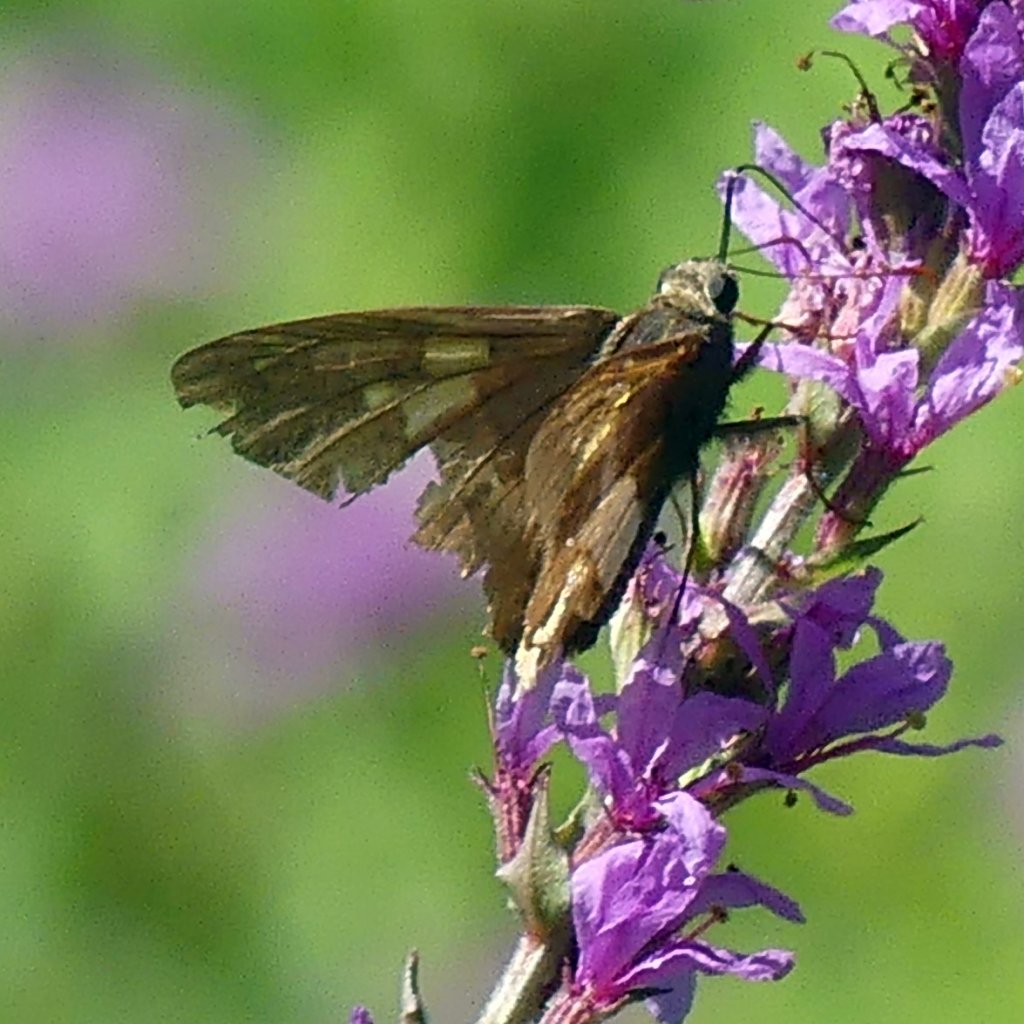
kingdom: Animalia
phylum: Arthropoda
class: Insecta
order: Lepidoptera
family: Hesperiidae
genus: Epargyreus
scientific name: Epargyreus clarus
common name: Silver-spotted Skipper
